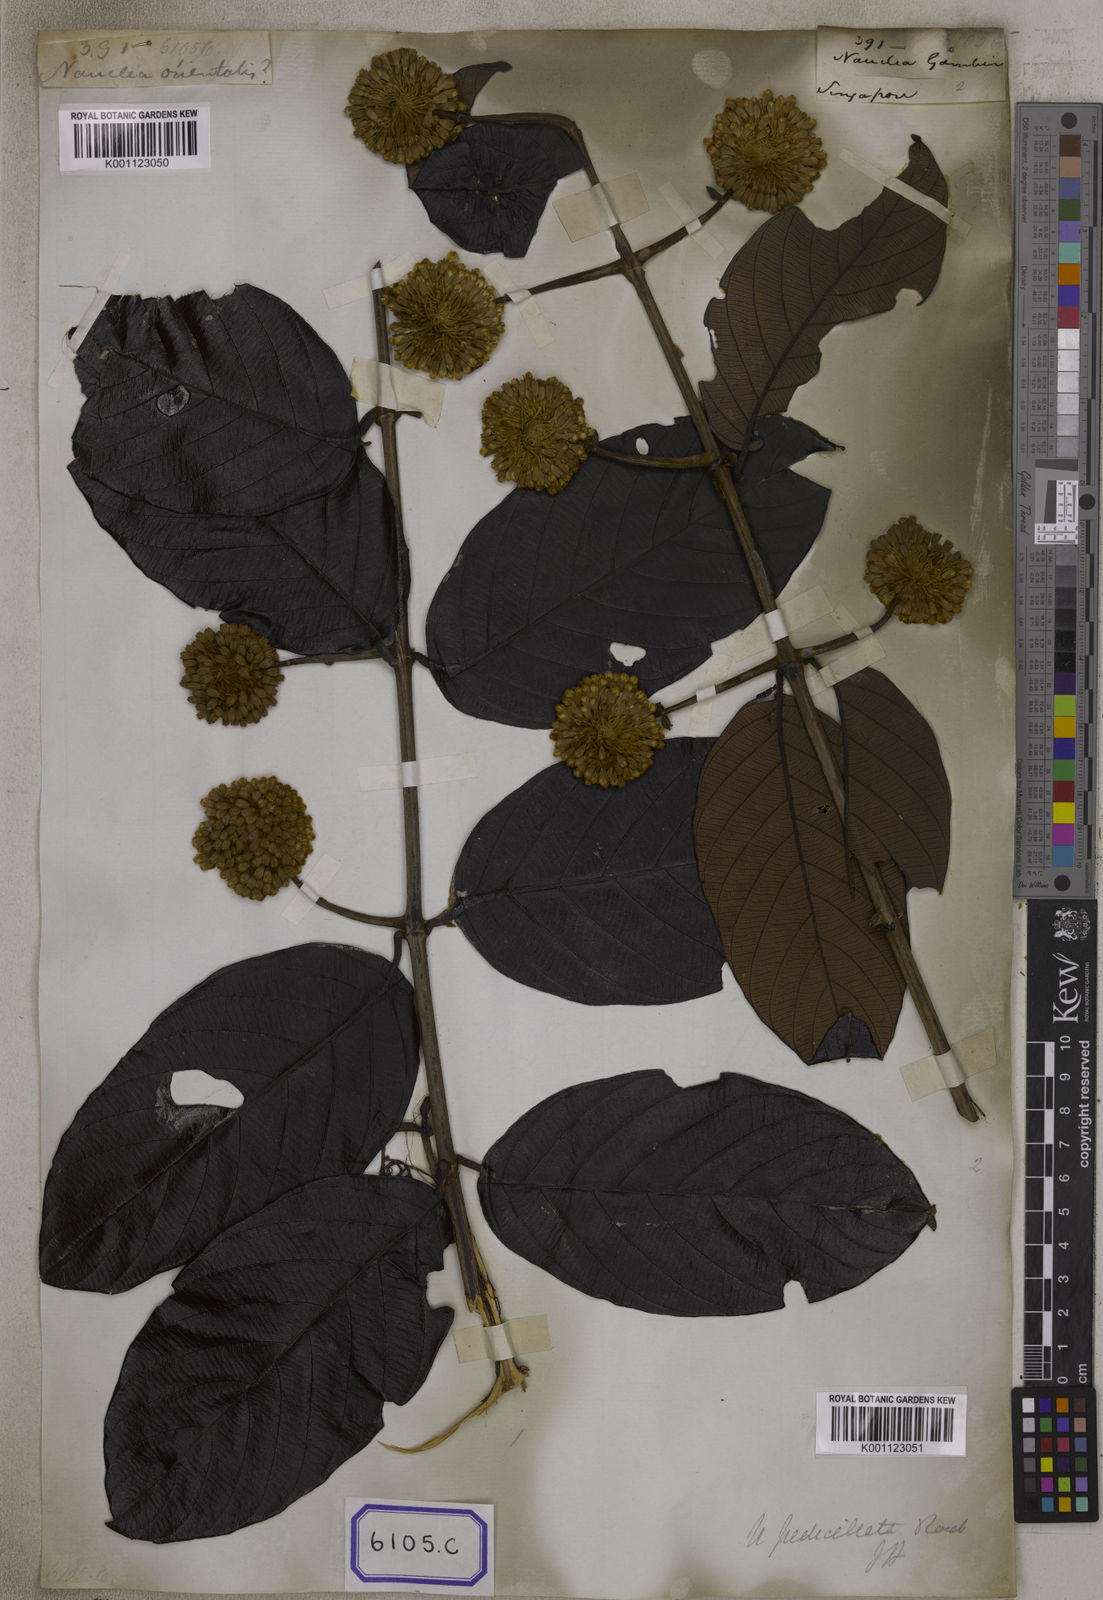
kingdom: Plantae
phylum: Tracheophyta
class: Magnoliopsida
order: Gentianales
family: Rubiaceae
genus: Uncaria
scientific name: Uncaria
